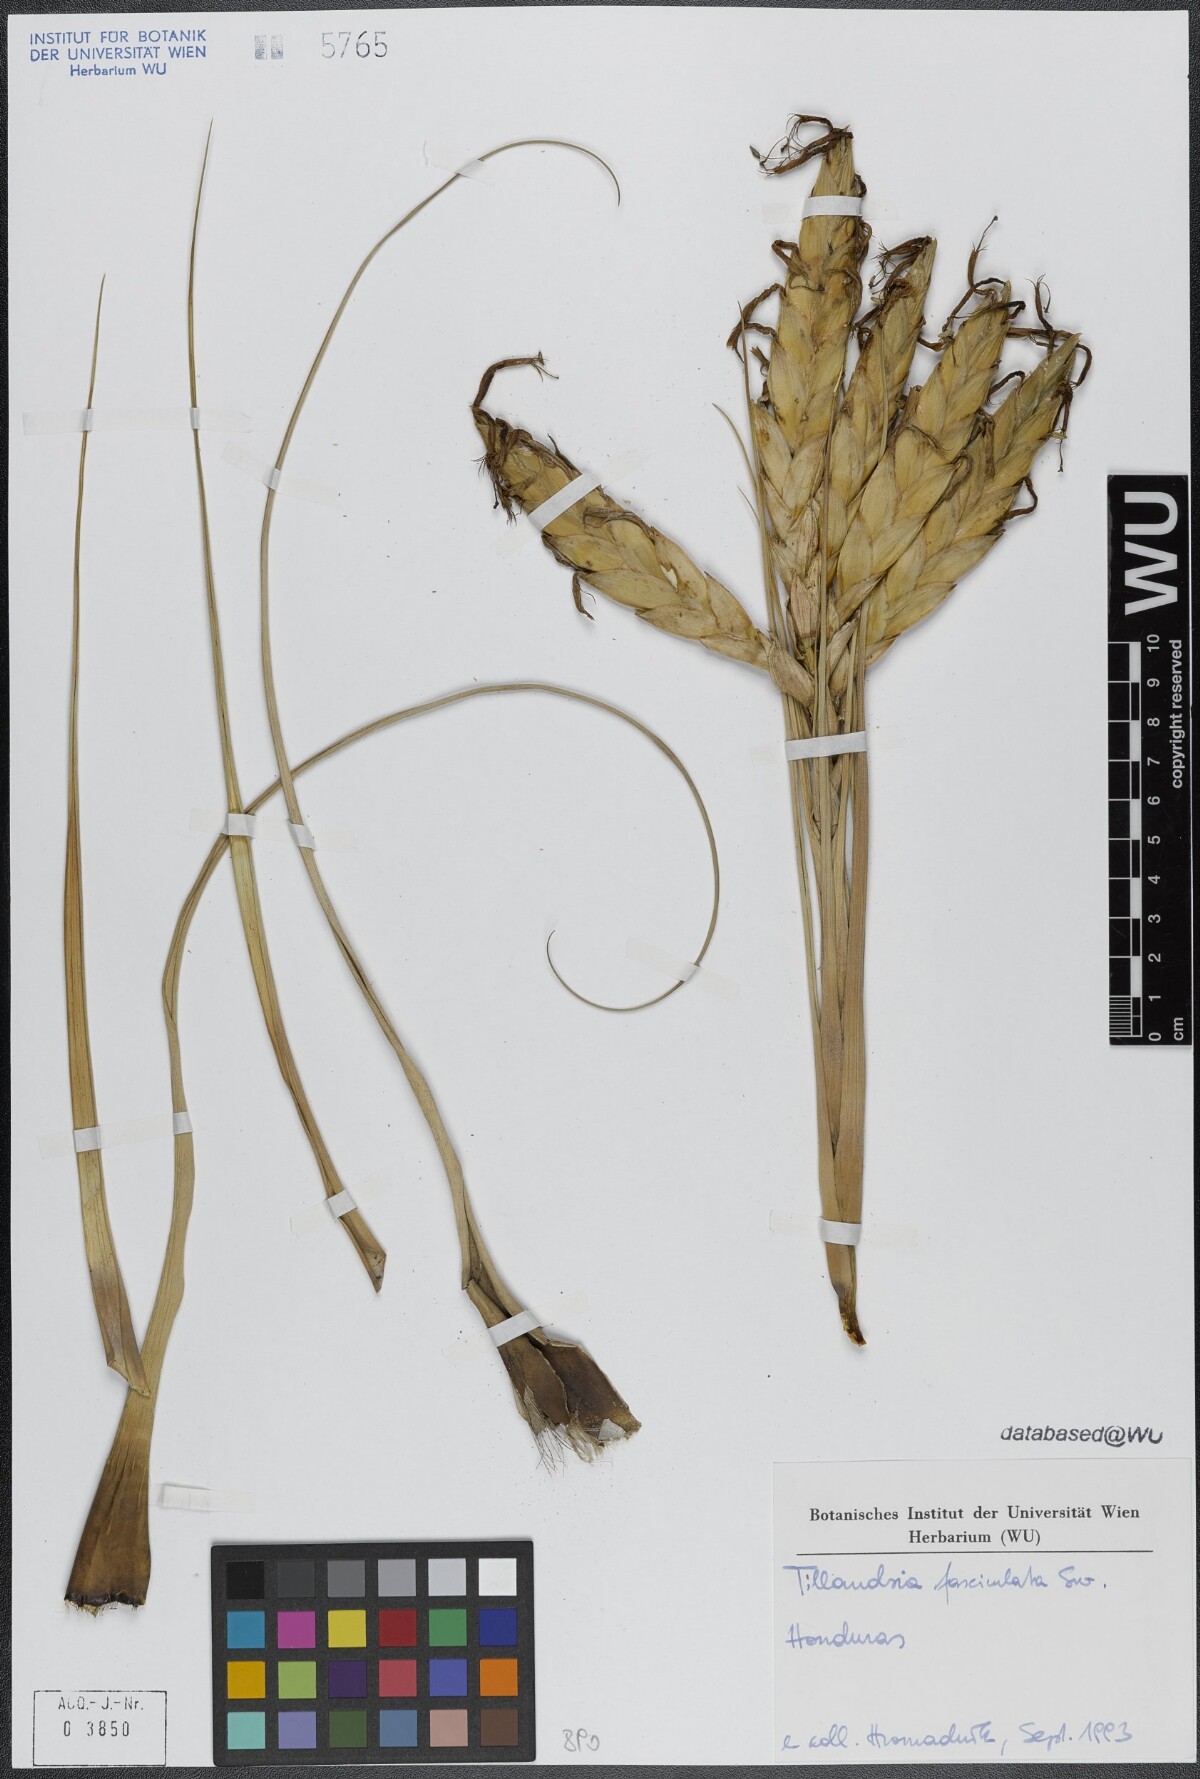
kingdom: Plantae
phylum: Tracheophyta
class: Liliopsida
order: Poales
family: Bromeliaceae
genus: Tillandsia
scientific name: Tillandsia fasciculata
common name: Giant airplant
